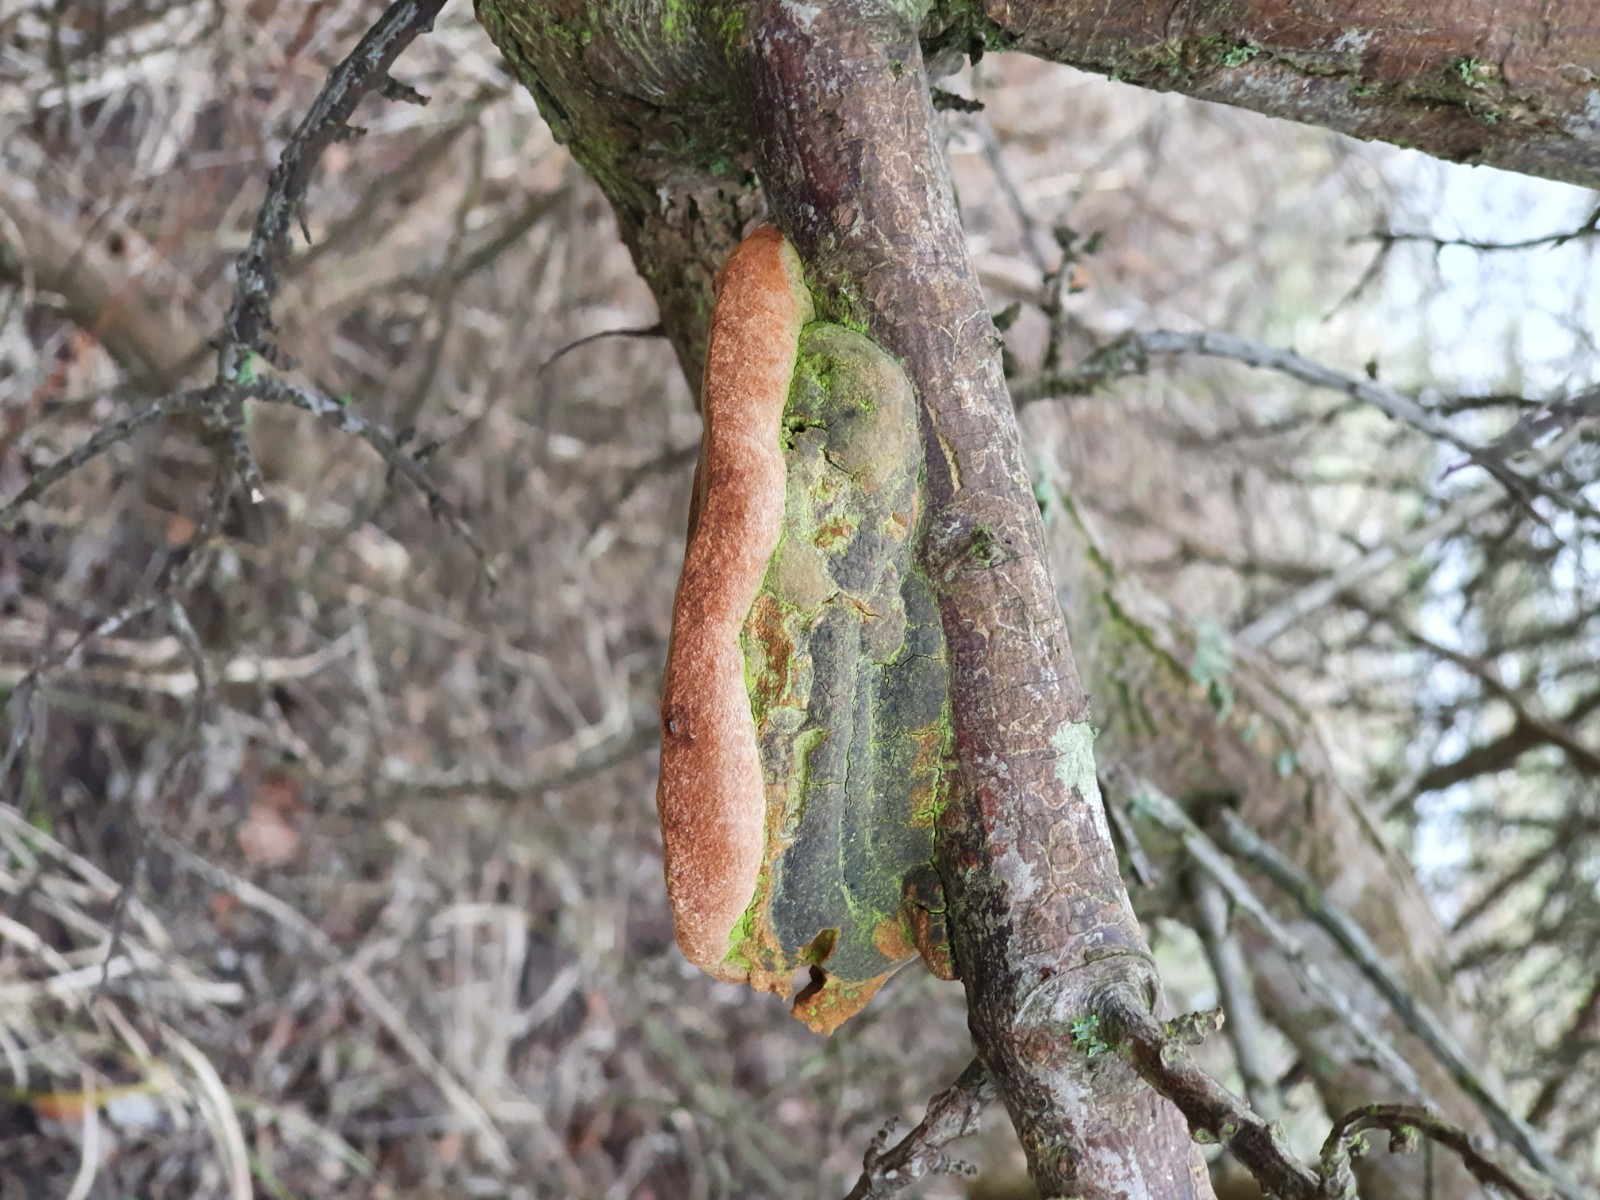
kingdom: Fungi
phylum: Basidiomycota
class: Agaricomycetes
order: Hymenochaetales
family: Hymenochaetaceae
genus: Fomitiporia
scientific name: Fomitiporia hippophaeicola
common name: havtorn-ildporesvamp
